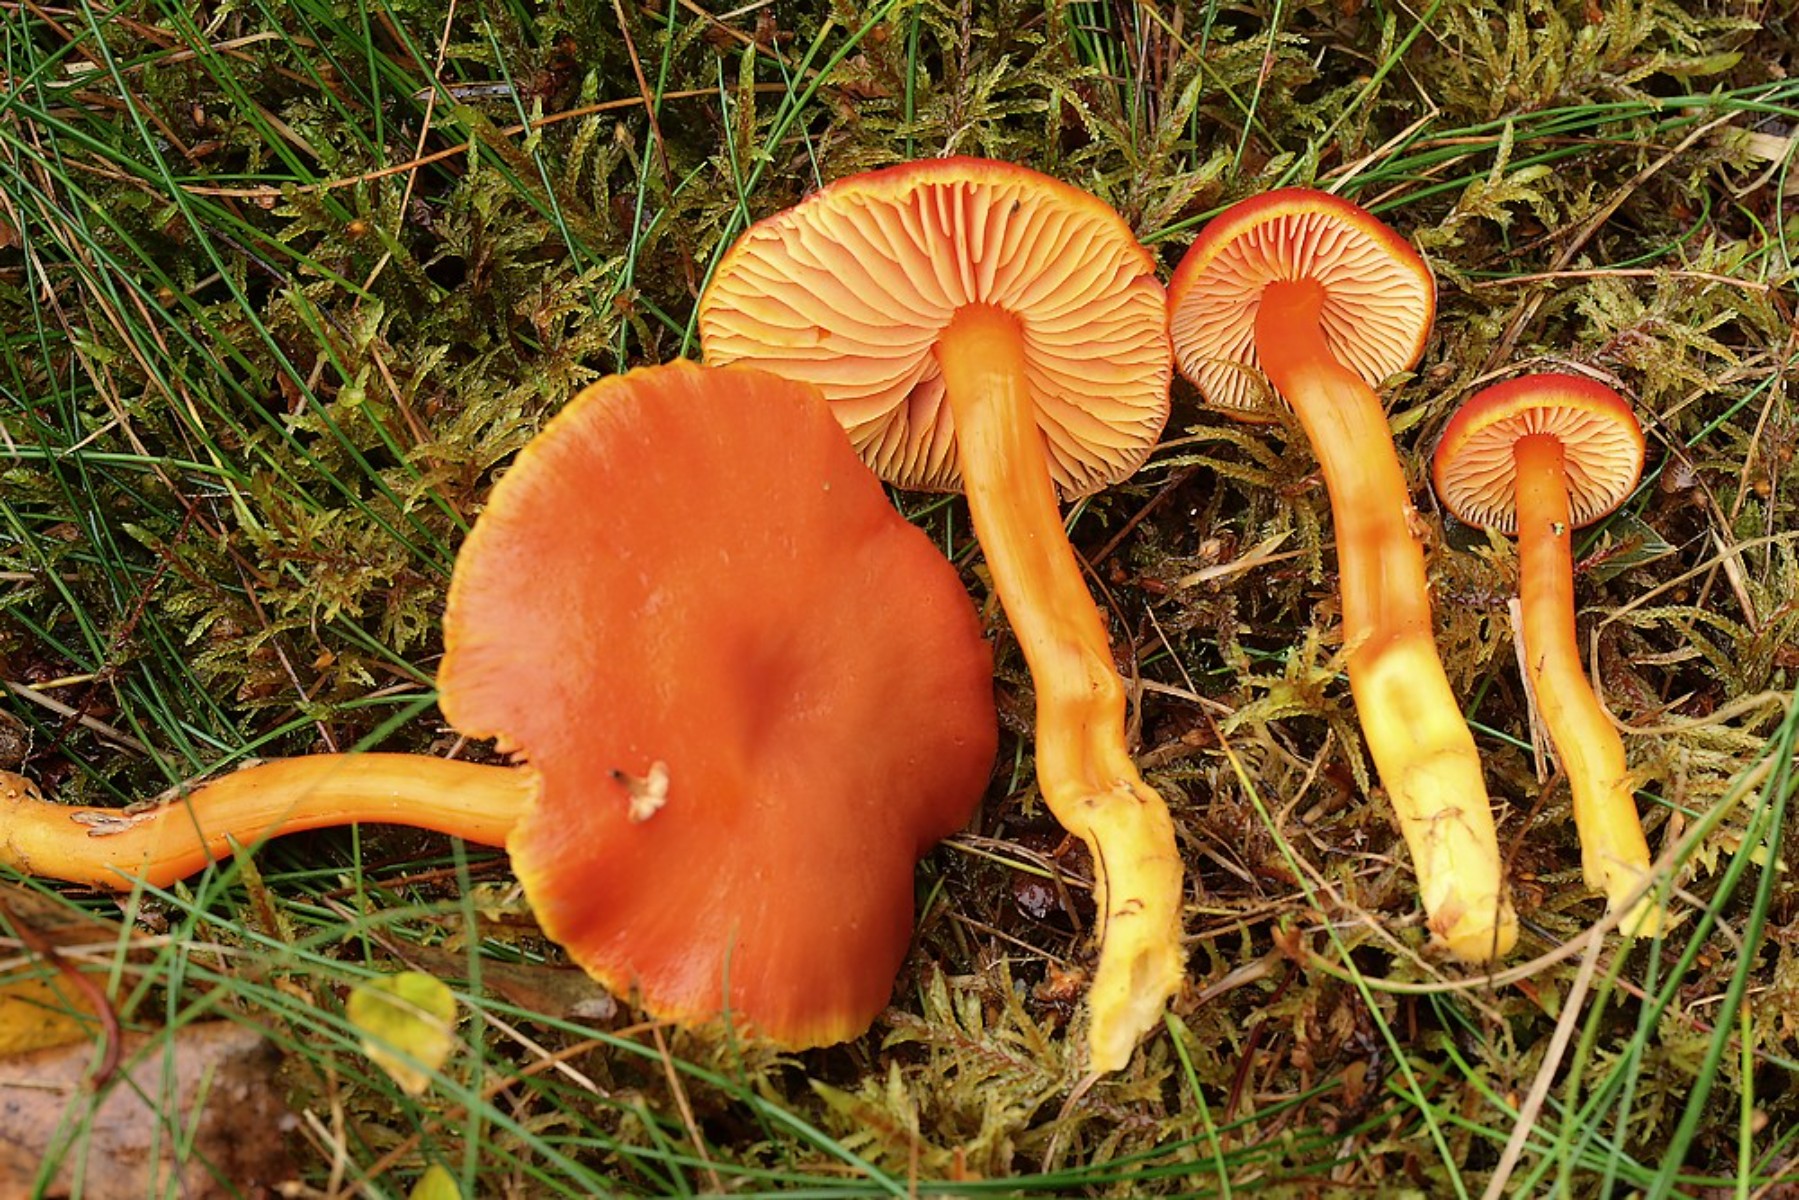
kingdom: Fungi
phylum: Basidiomycota
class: Agaricomycetes
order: Agaricales
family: Hygrophoraceae
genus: Hygrocybe
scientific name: Hygrocybe miniata
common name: mønje-vokshat
